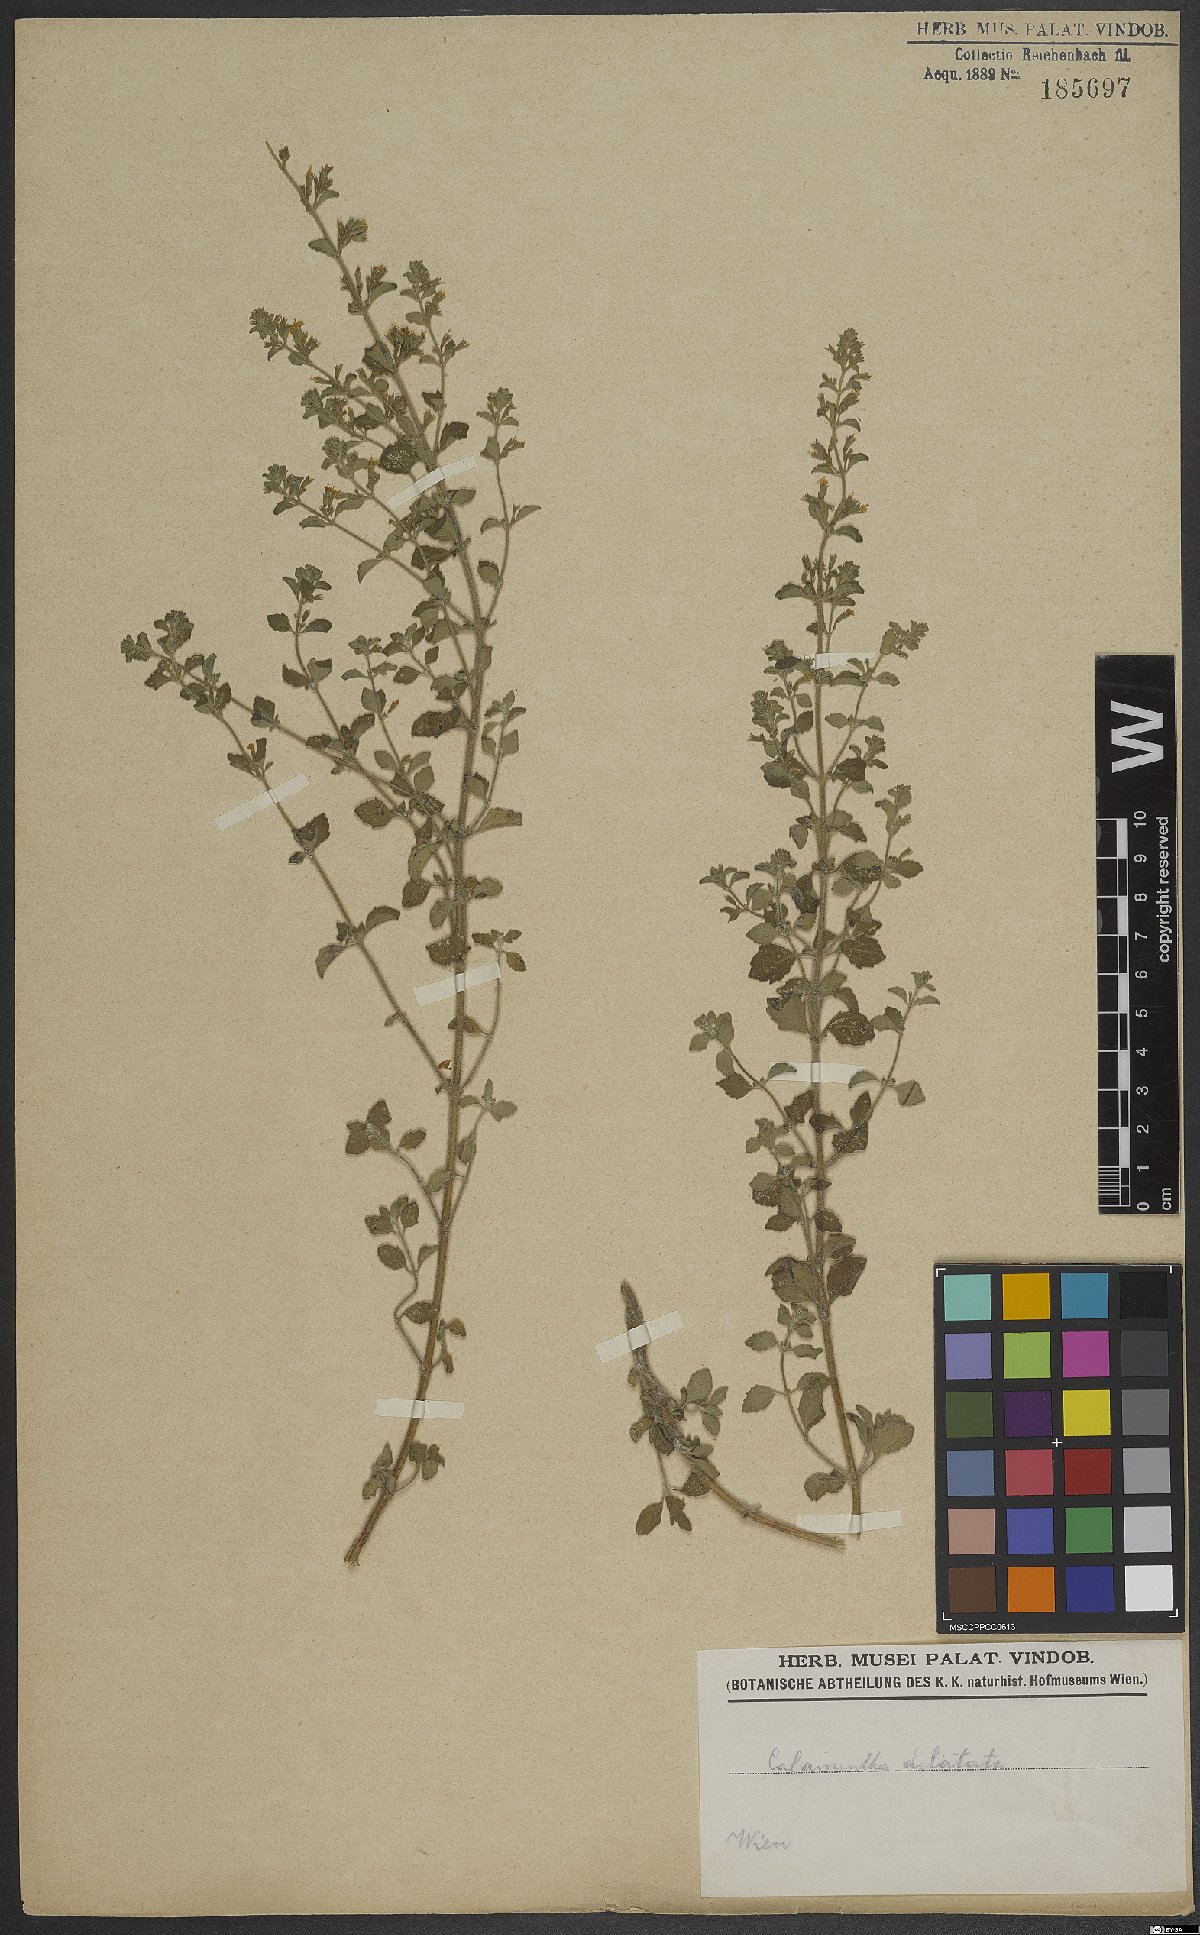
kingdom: Plantae
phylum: Tracheophyta
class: Magnoliopsida
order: Lamiales
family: Lamiaceae
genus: Calamintha
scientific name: Calamintha
